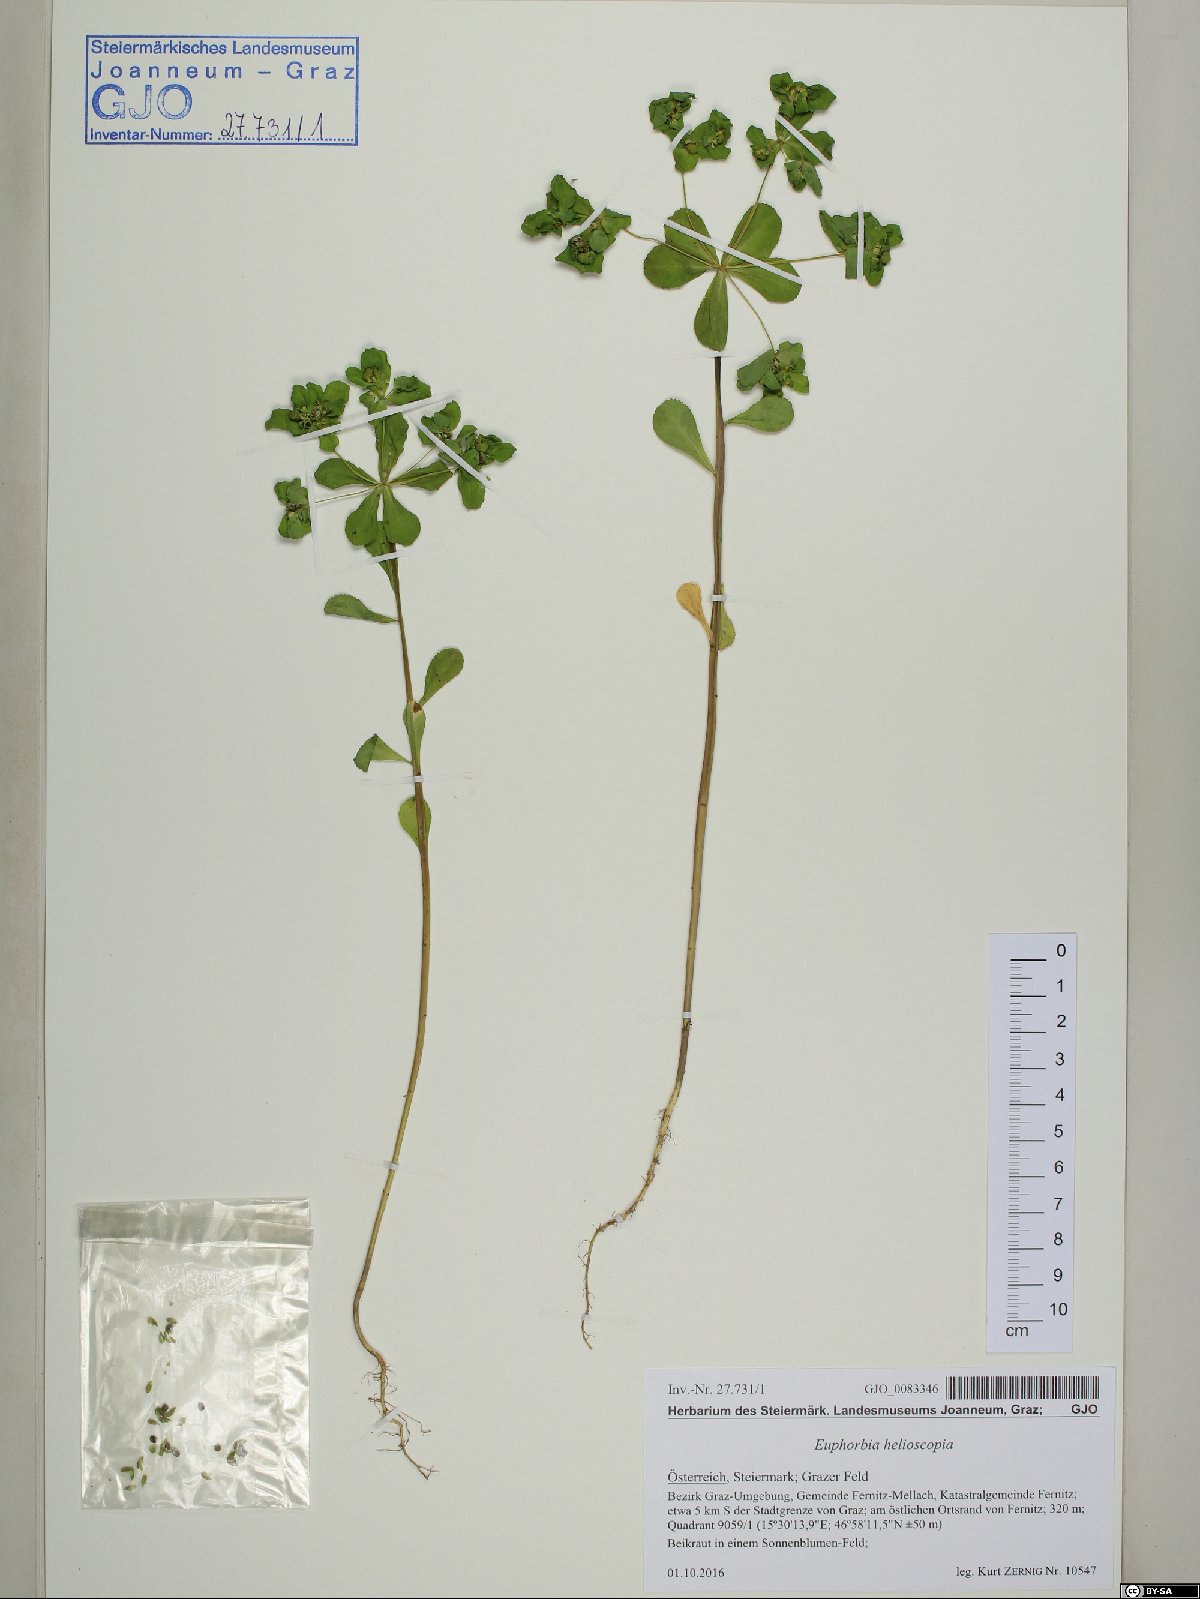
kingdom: Plantae
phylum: Tracheophyta
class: Magnoliopsida
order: Malpighiales
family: Euphorbiaceae
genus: Euphorbia
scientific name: Euphorbia helioscopia
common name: Sun spurge
